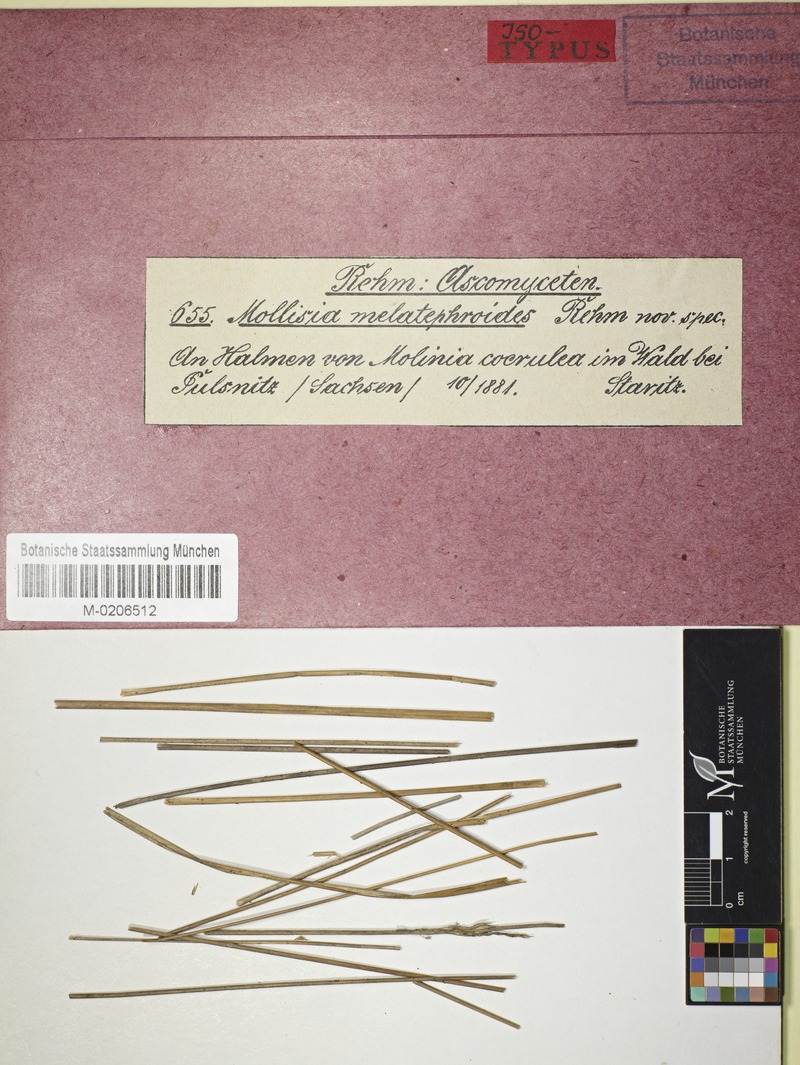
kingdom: Fungi
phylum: Ascomycota
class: Leotiomycetes
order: Helotiales
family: Mollisiaceae
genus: Nimbomollisia
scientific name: Nimbomollisia melatephroides
